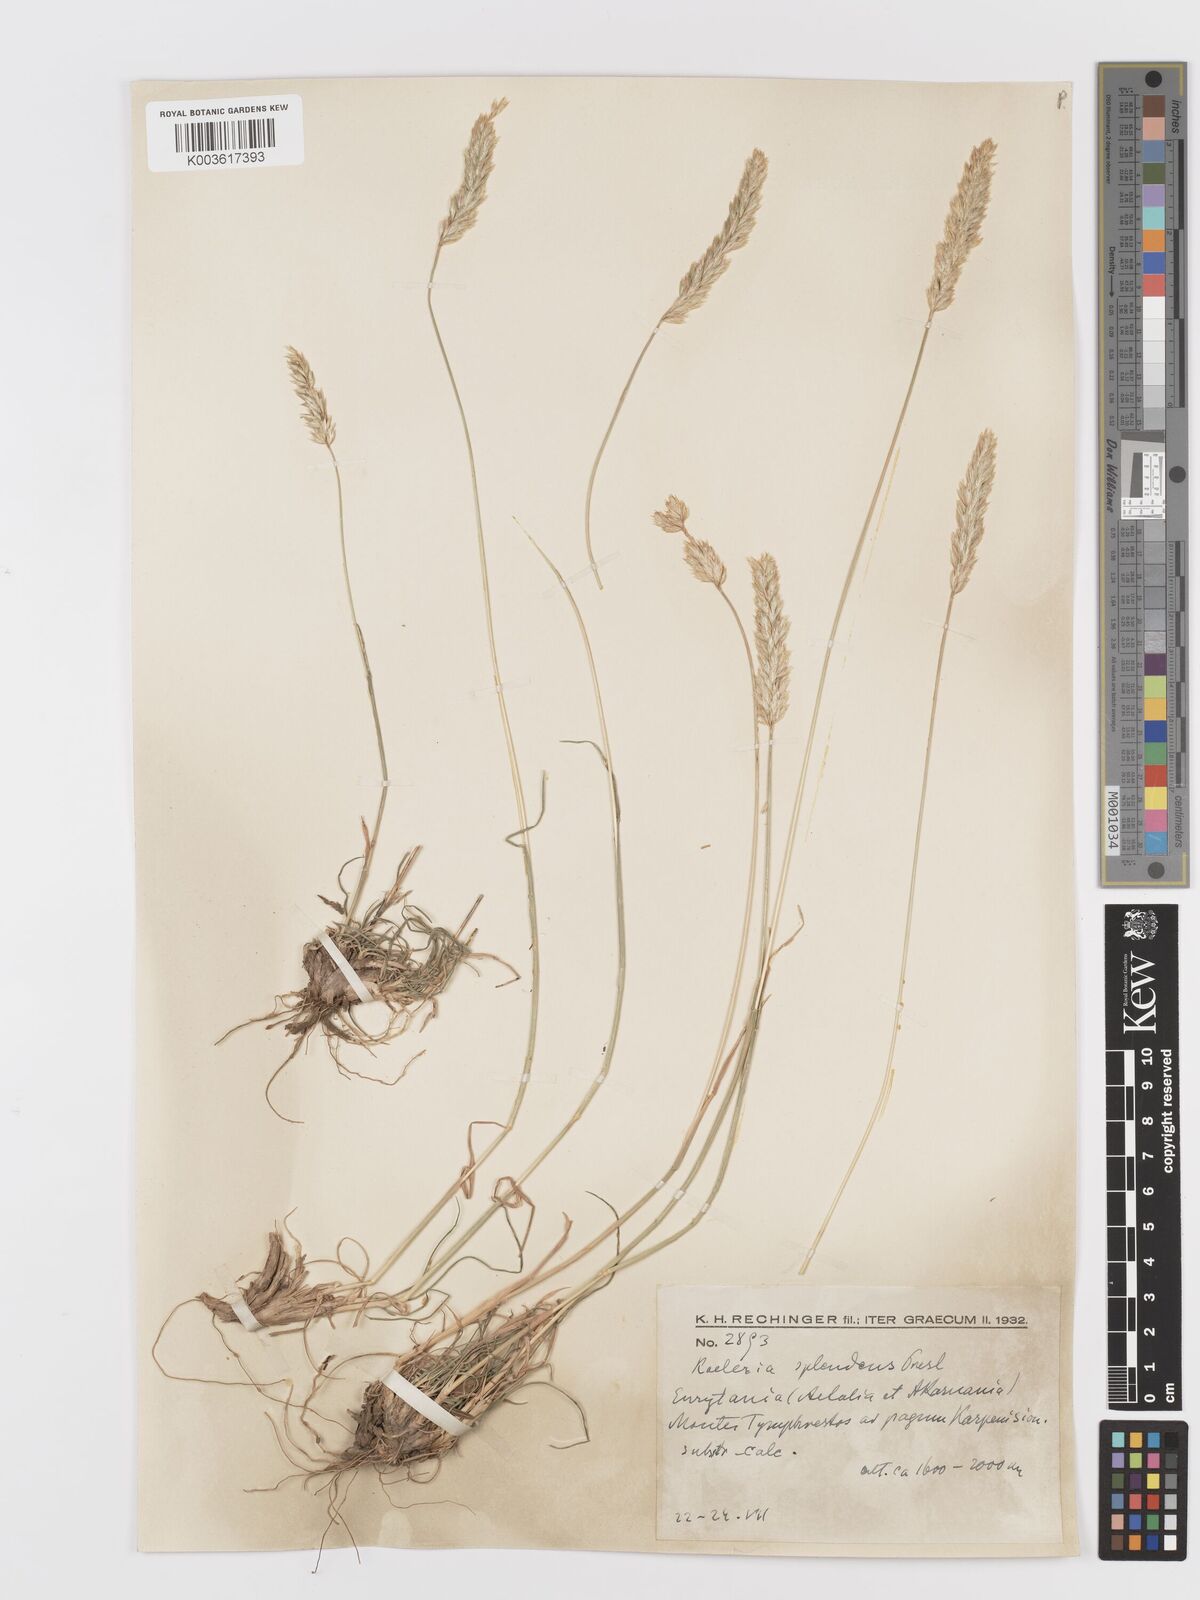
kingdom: Plantae
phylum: Tracheophyta
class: Liliopsida
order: Poales
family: Poaceae
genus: Koeleria
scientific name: Koeleria splendens
